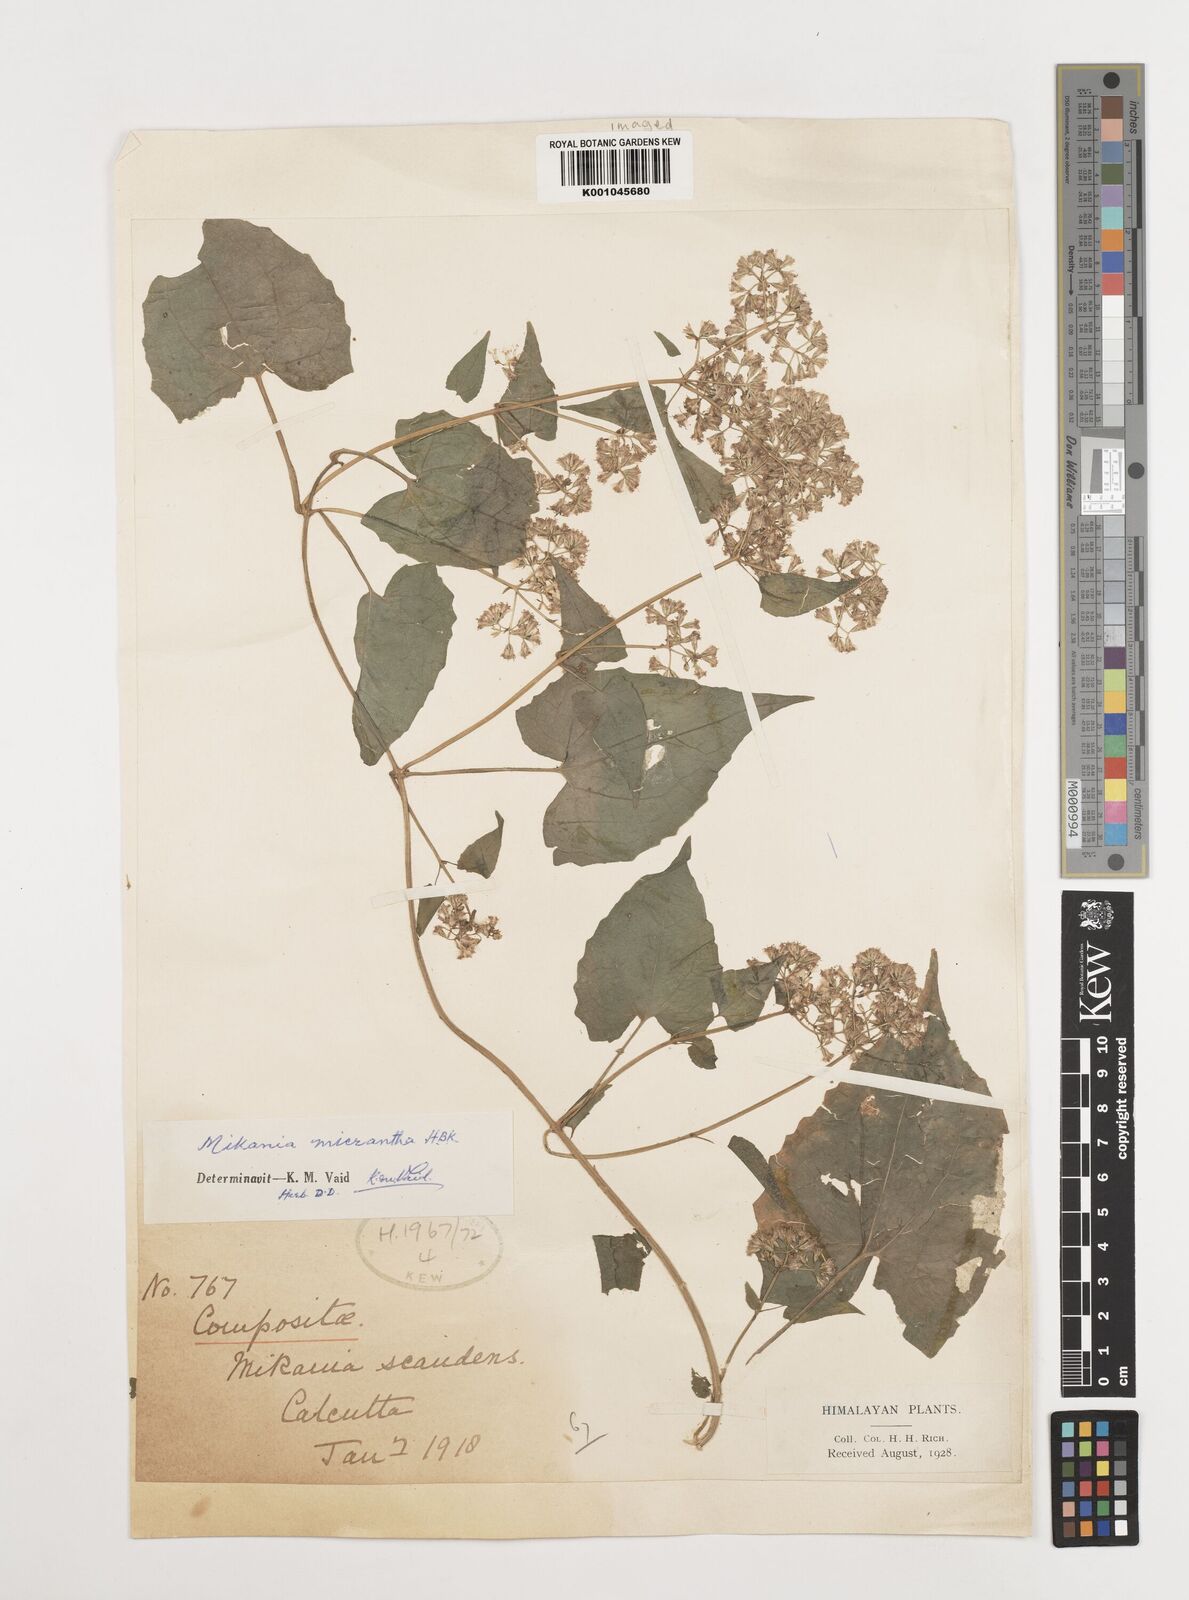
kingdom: Plantae
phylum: Tracheophyta
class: Magnoliopsida
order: Asterales
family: Asteraceae
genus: Mikania
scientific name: Mikania
